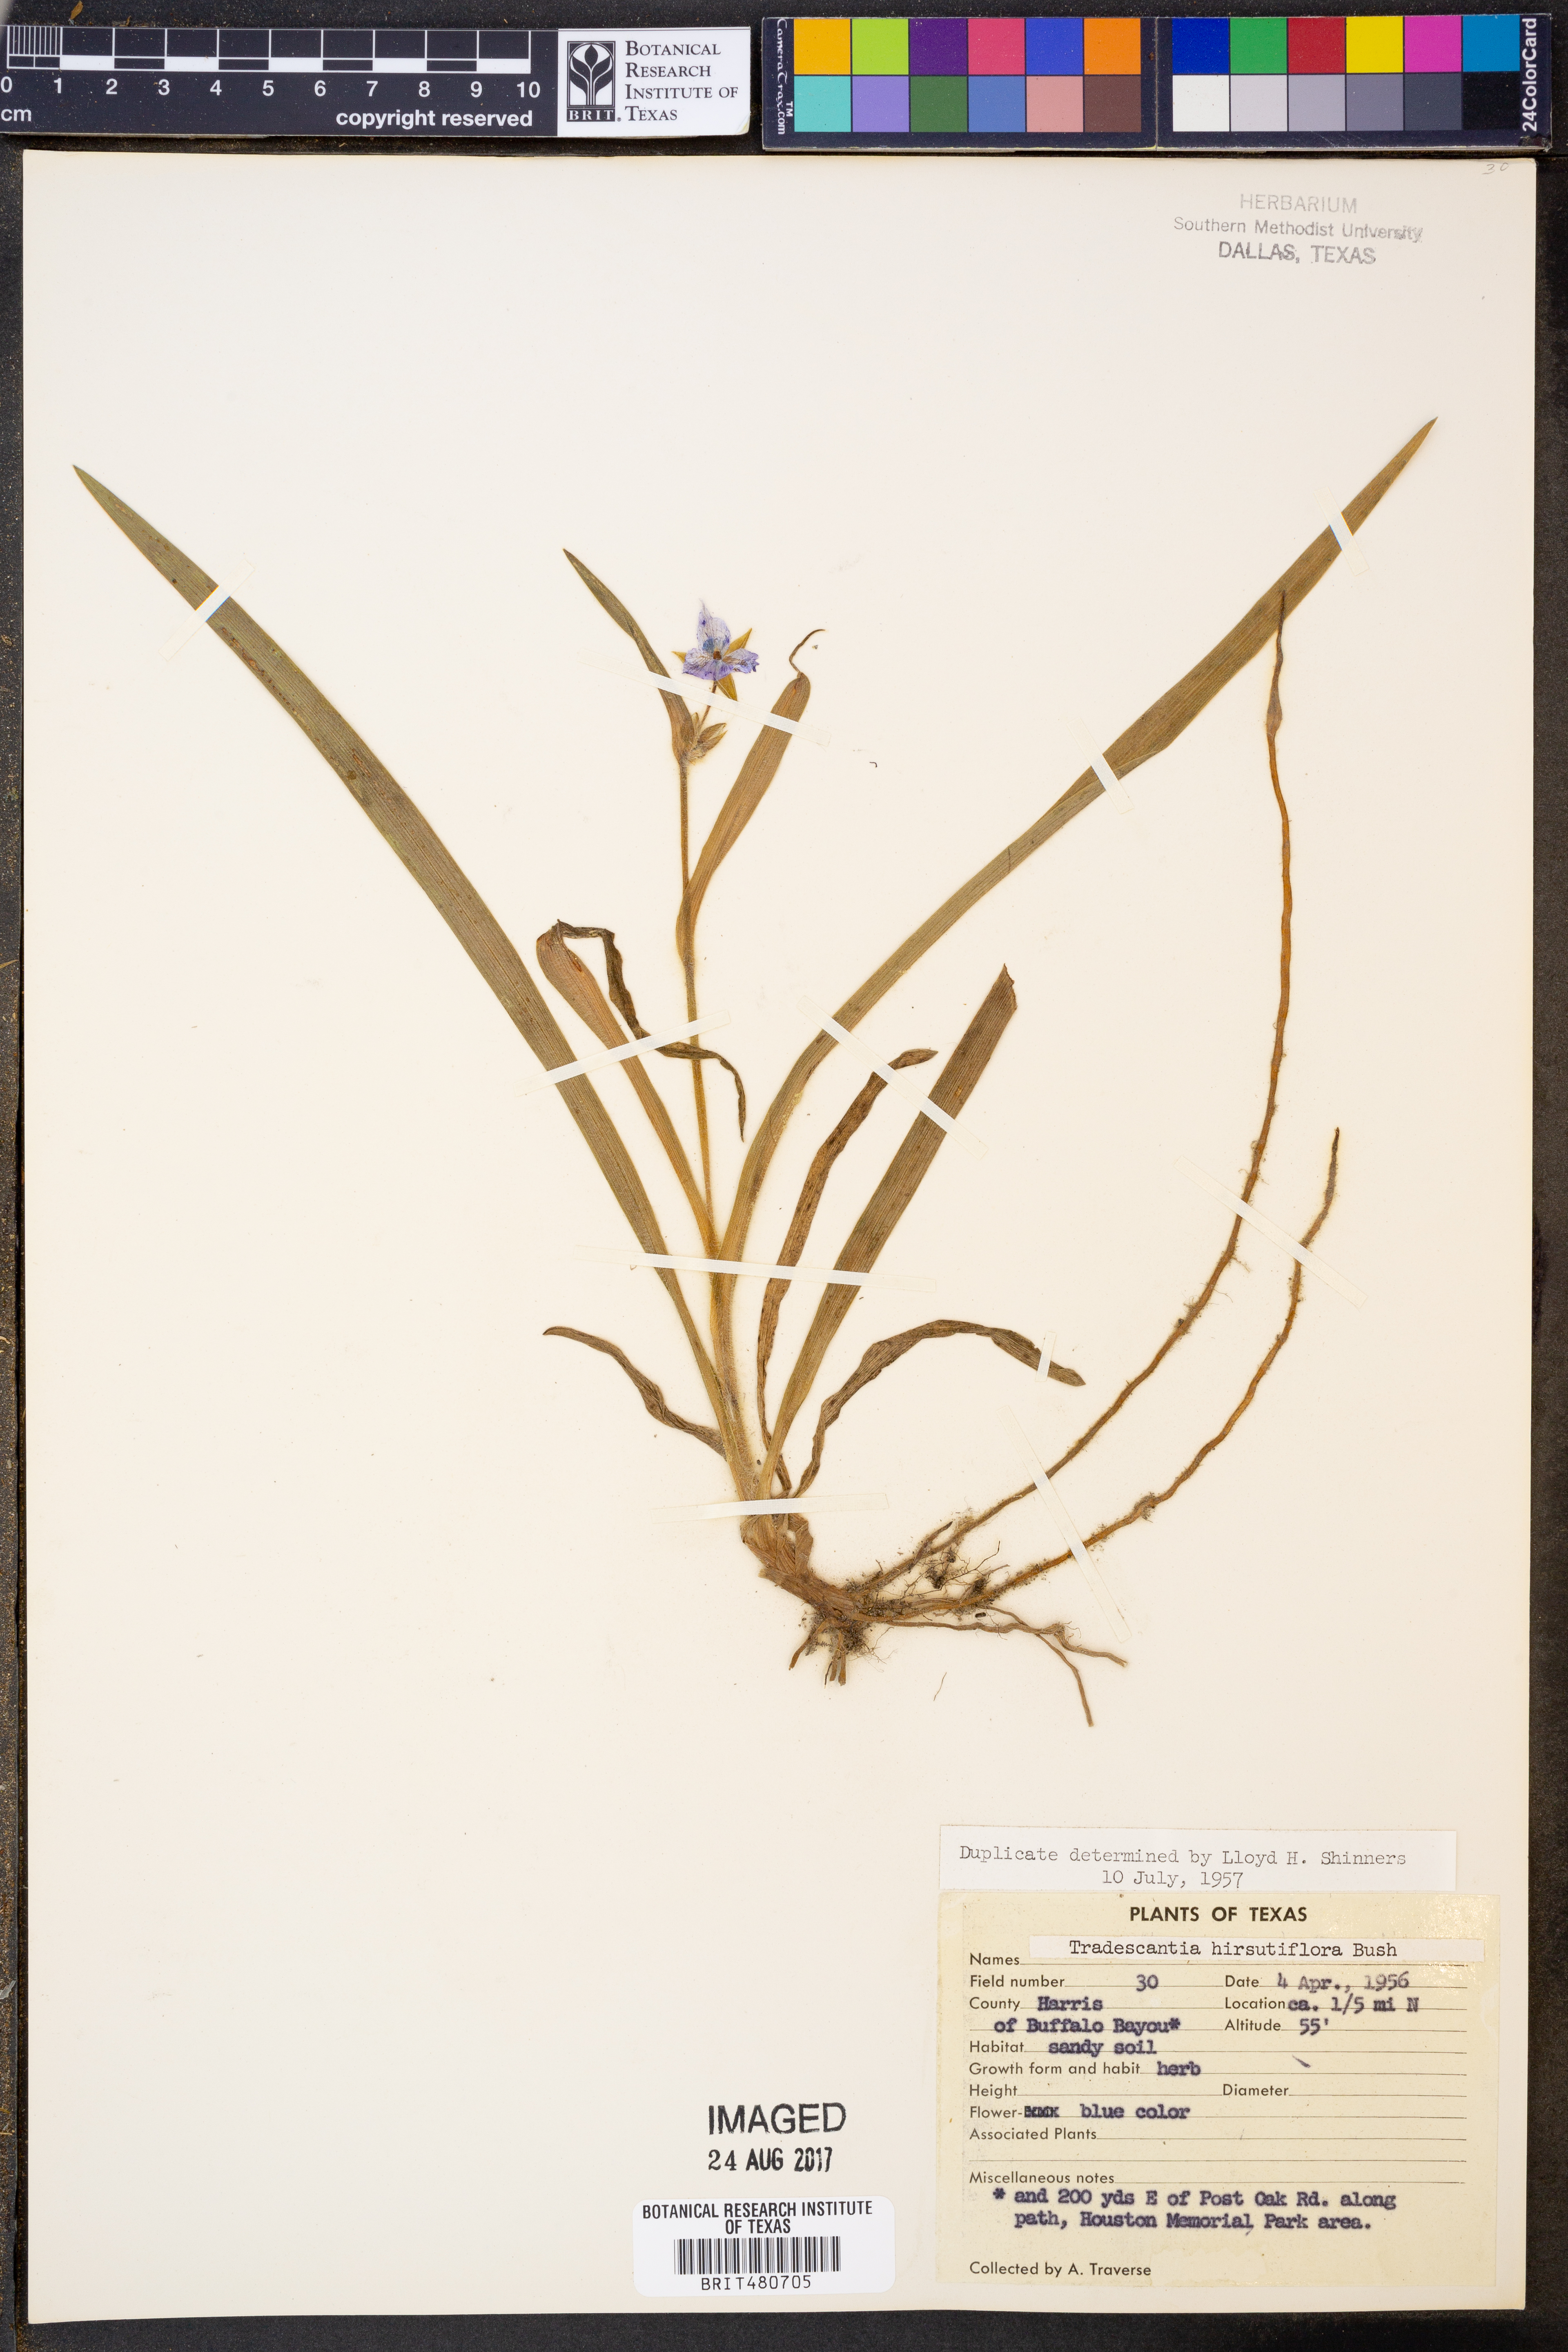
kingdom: Plantae
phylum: Tracheophyta
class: Liliopsida
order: Commelinales
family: Commelinaceae
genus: Tradescantia
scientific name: Tradescantia hirsutiflora
